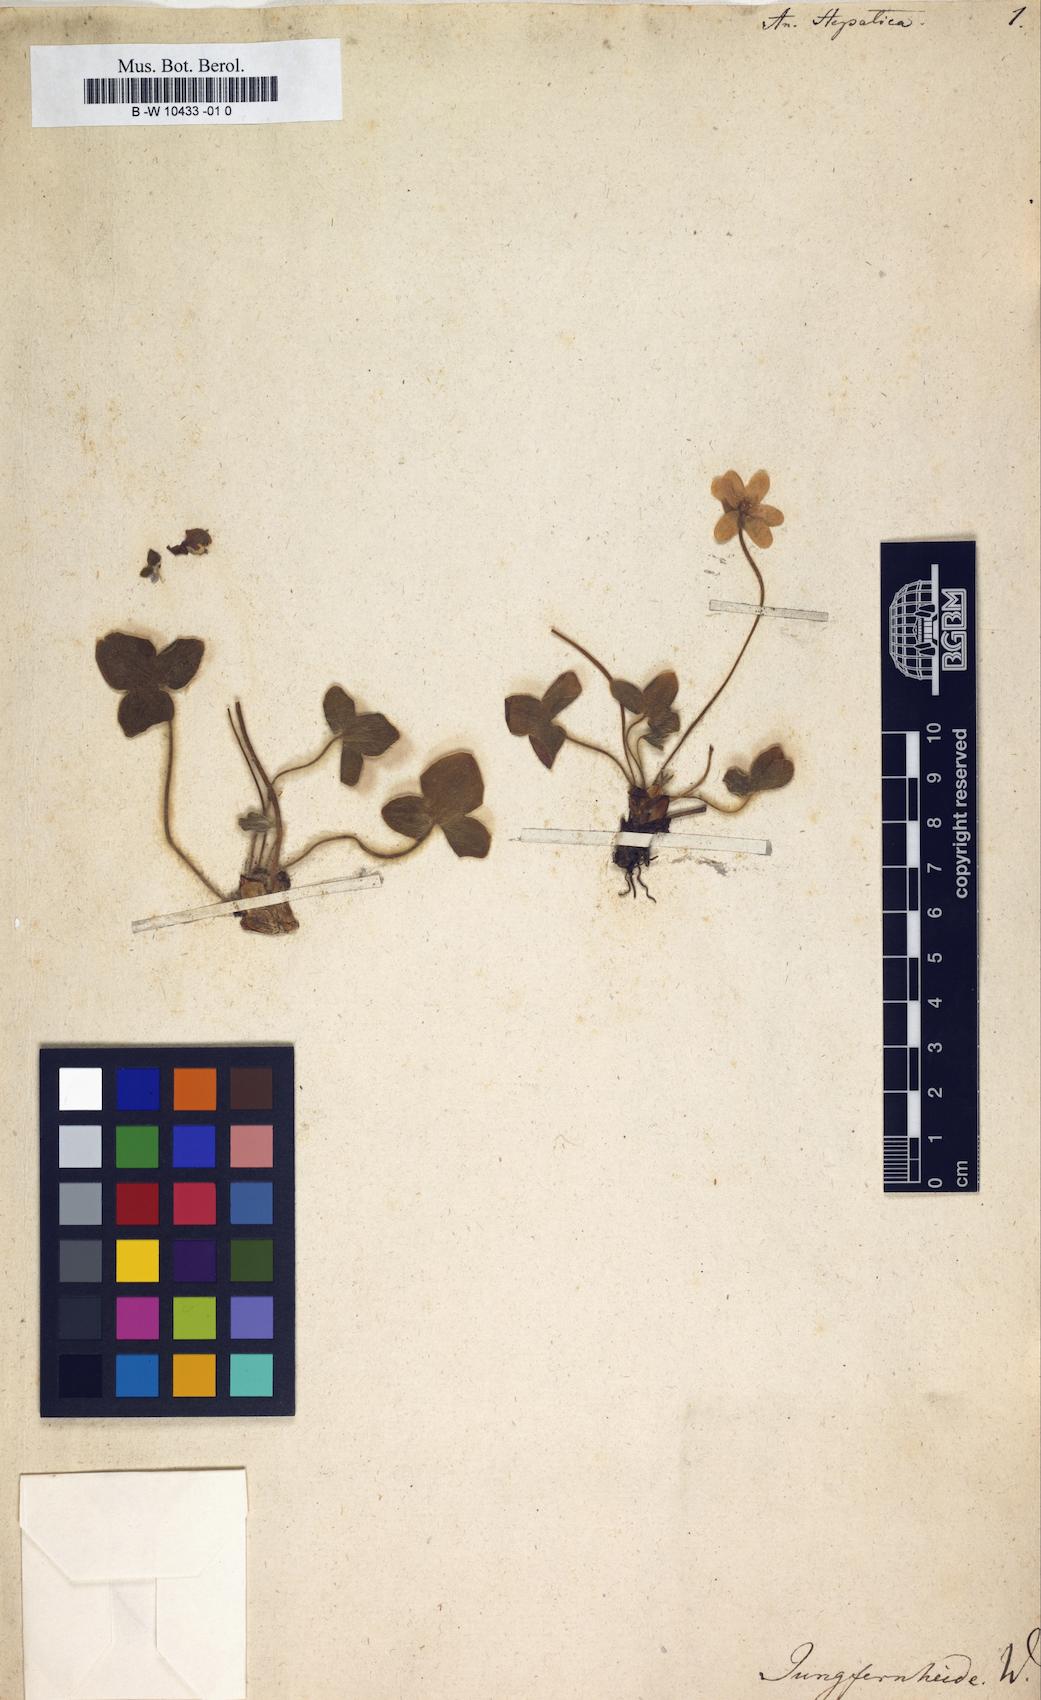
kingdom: Plantae
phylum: Tracheophyta
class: Magnoliopsida
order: Ranunculales
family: Ranunculaceae
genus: Hepatica
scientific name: Hepatica nobilis
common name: Liverleaf
